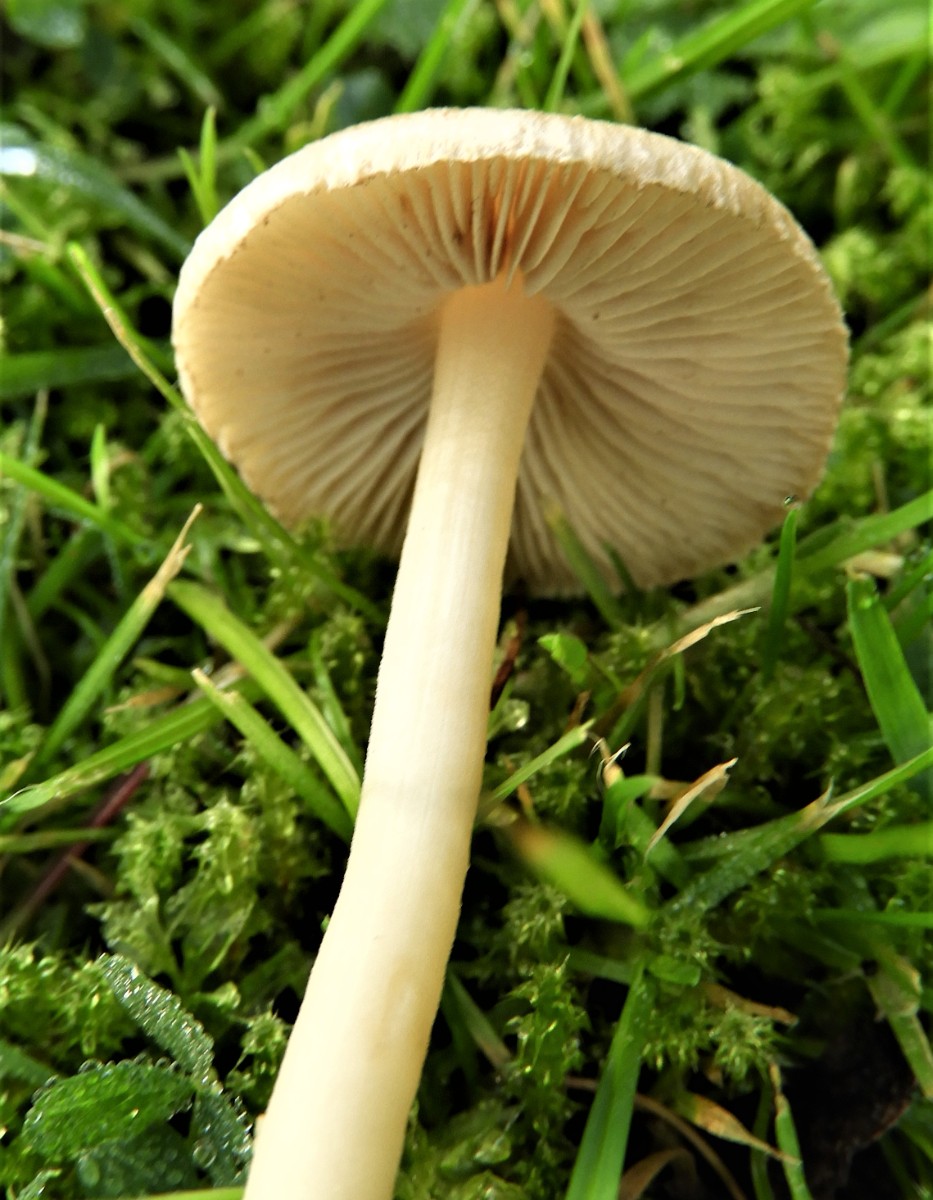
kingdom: Fungi
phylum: Basidiomycota
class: Agaricomycetes
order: Agaricales
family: Inocybaceae
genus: Inocybe
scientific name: Inocybe
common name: trævlhat
